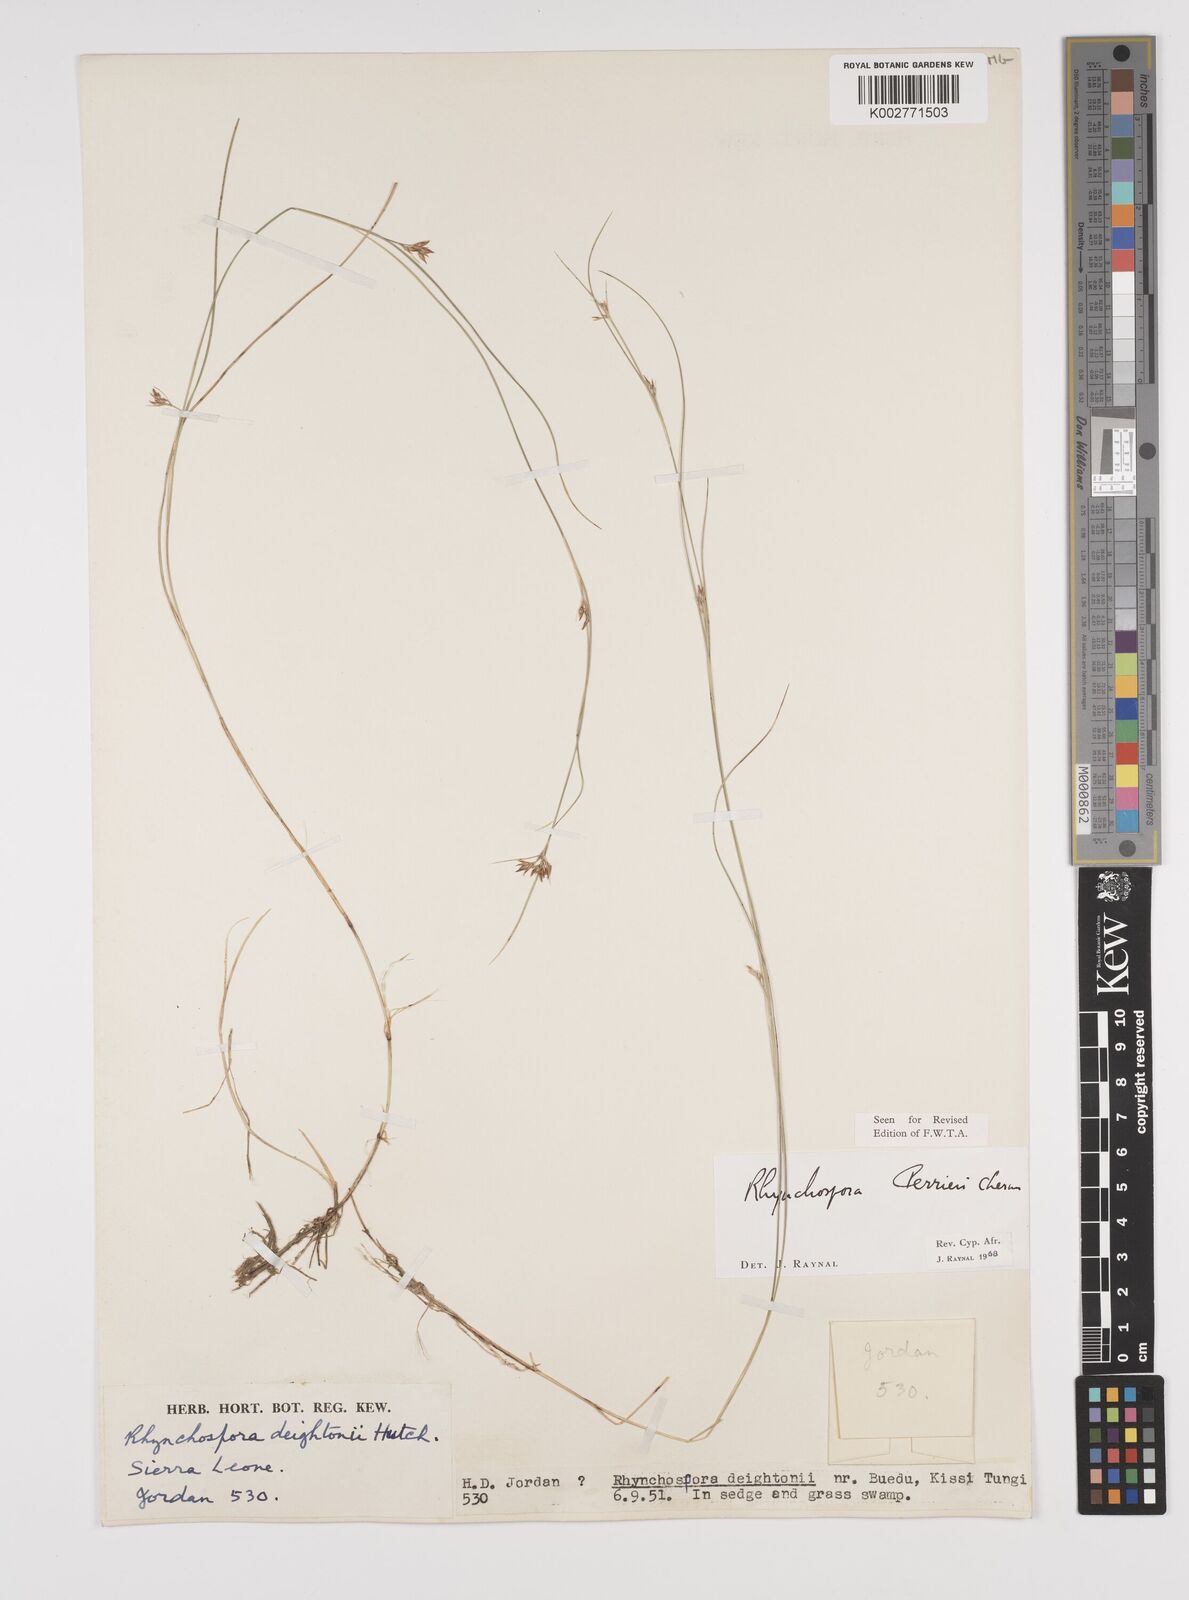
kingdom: Plantae
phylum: Tracheophyta
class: Liliopsida
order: Poales
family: Cyperaceae
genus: Rhynchospora
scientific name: Rhynchospora perrieri
